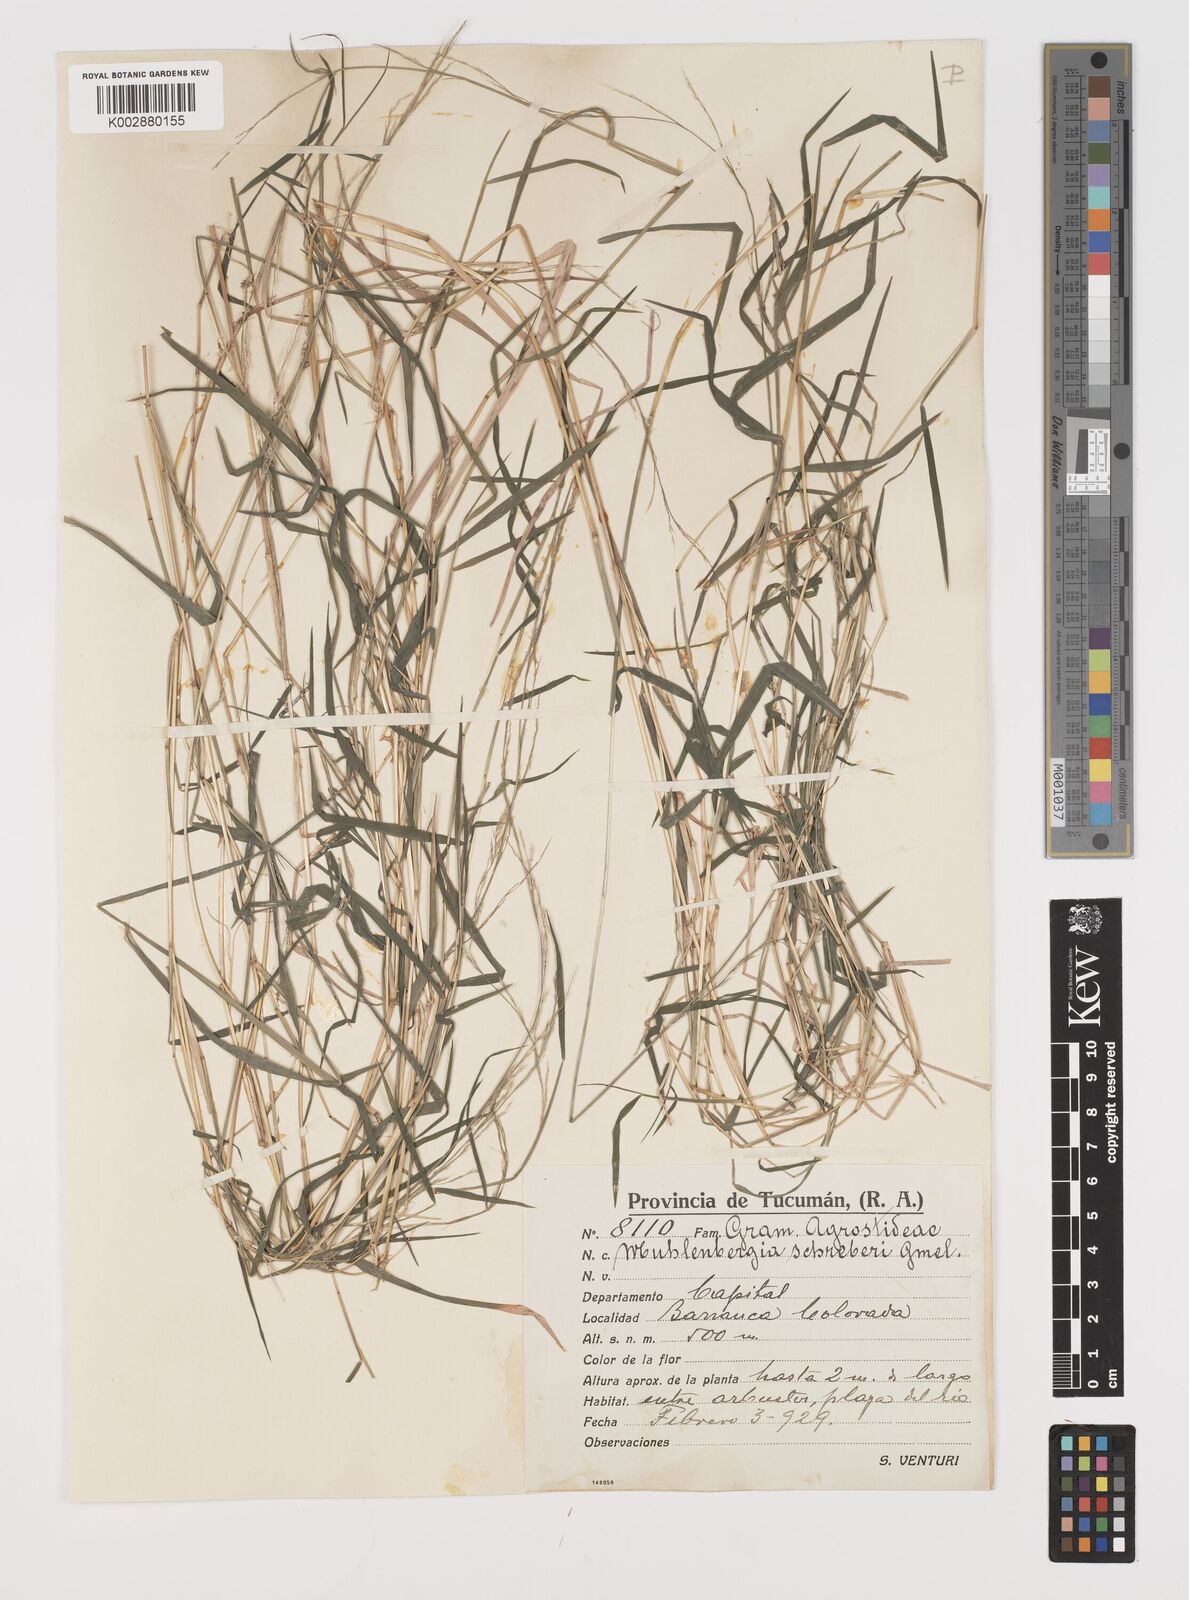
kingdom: Plantae
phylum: Tracheophyta
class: Liliopsida
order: Poales
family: Poaceae
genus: Muhlenbergia
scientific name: Muhlenbergia schreberi
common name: Nimblewill
